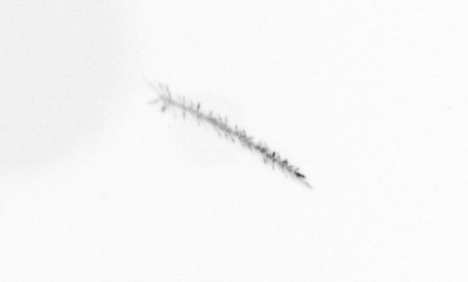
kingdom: Chromista
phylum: Ochrophyta
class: Bacillariophyceae
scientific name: Bacillariophyceae
